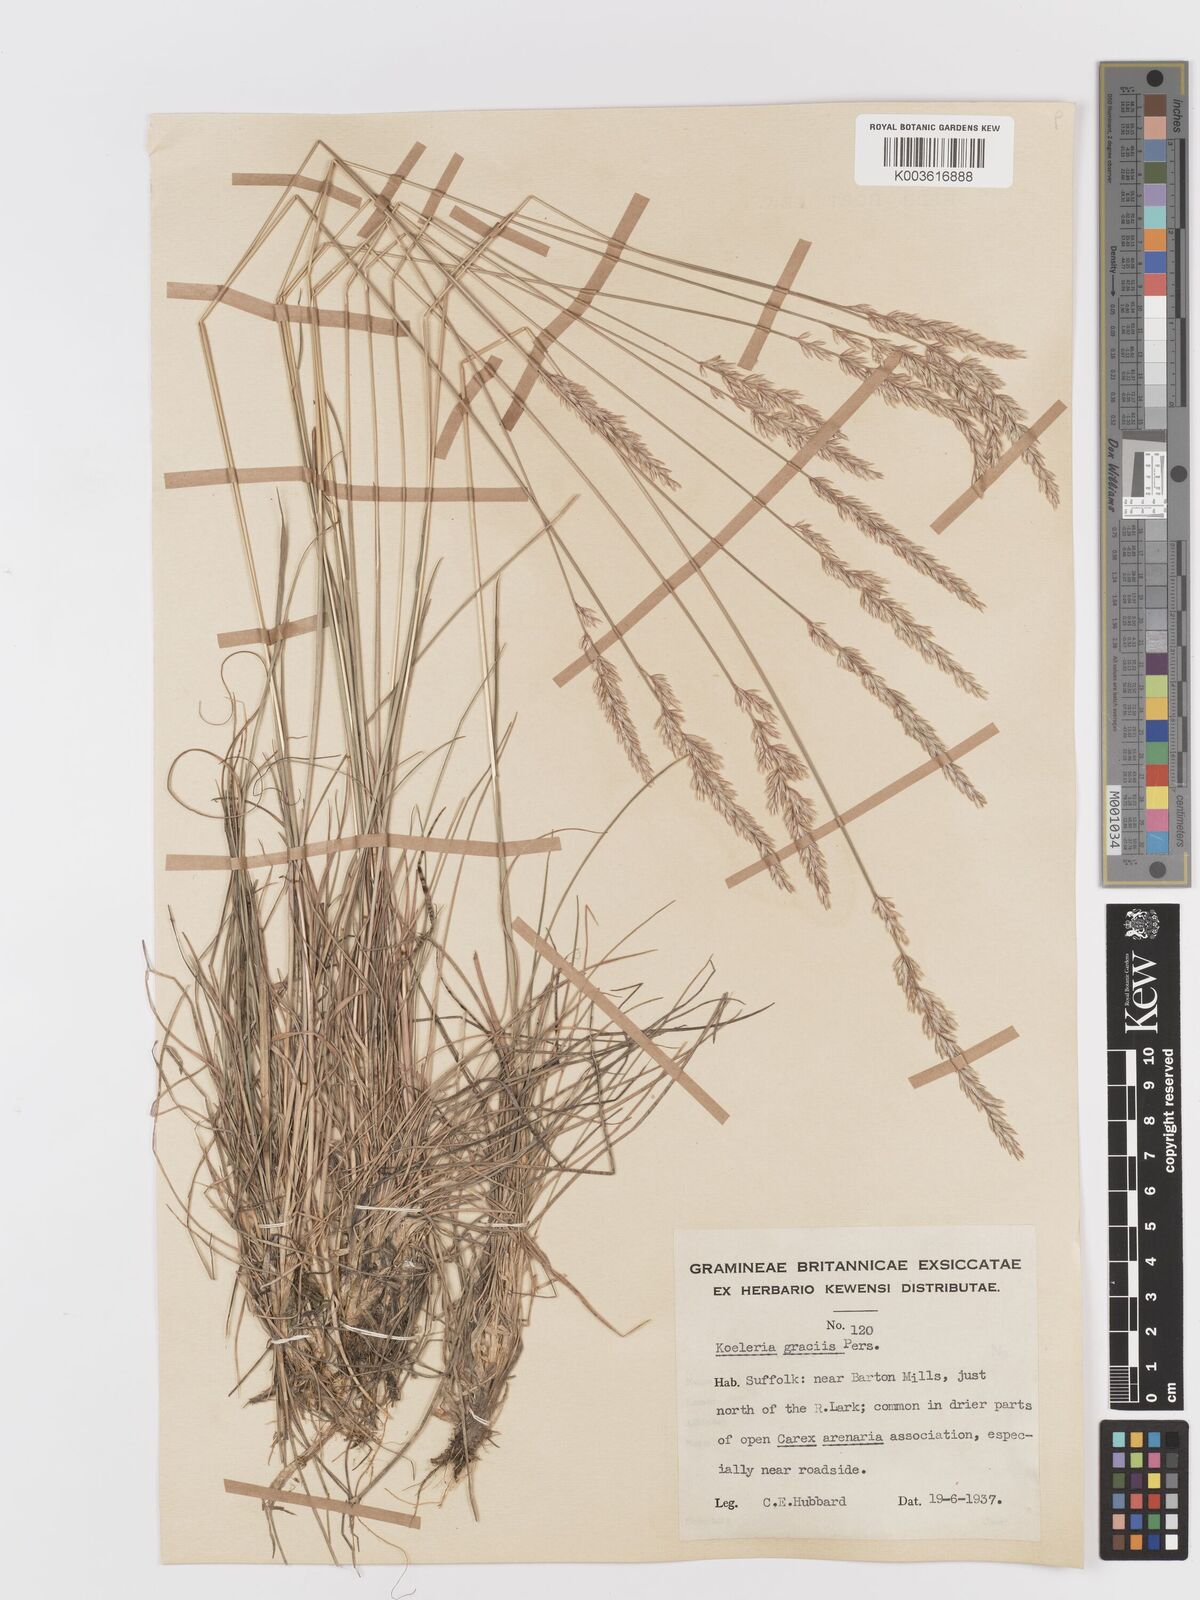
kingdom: Plantae
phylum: Tracheophyta
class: Liliopsida
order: Poales
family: Poaceae
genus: Koeleria
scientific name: Koeleria macrantha
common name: Crested hair-grass
